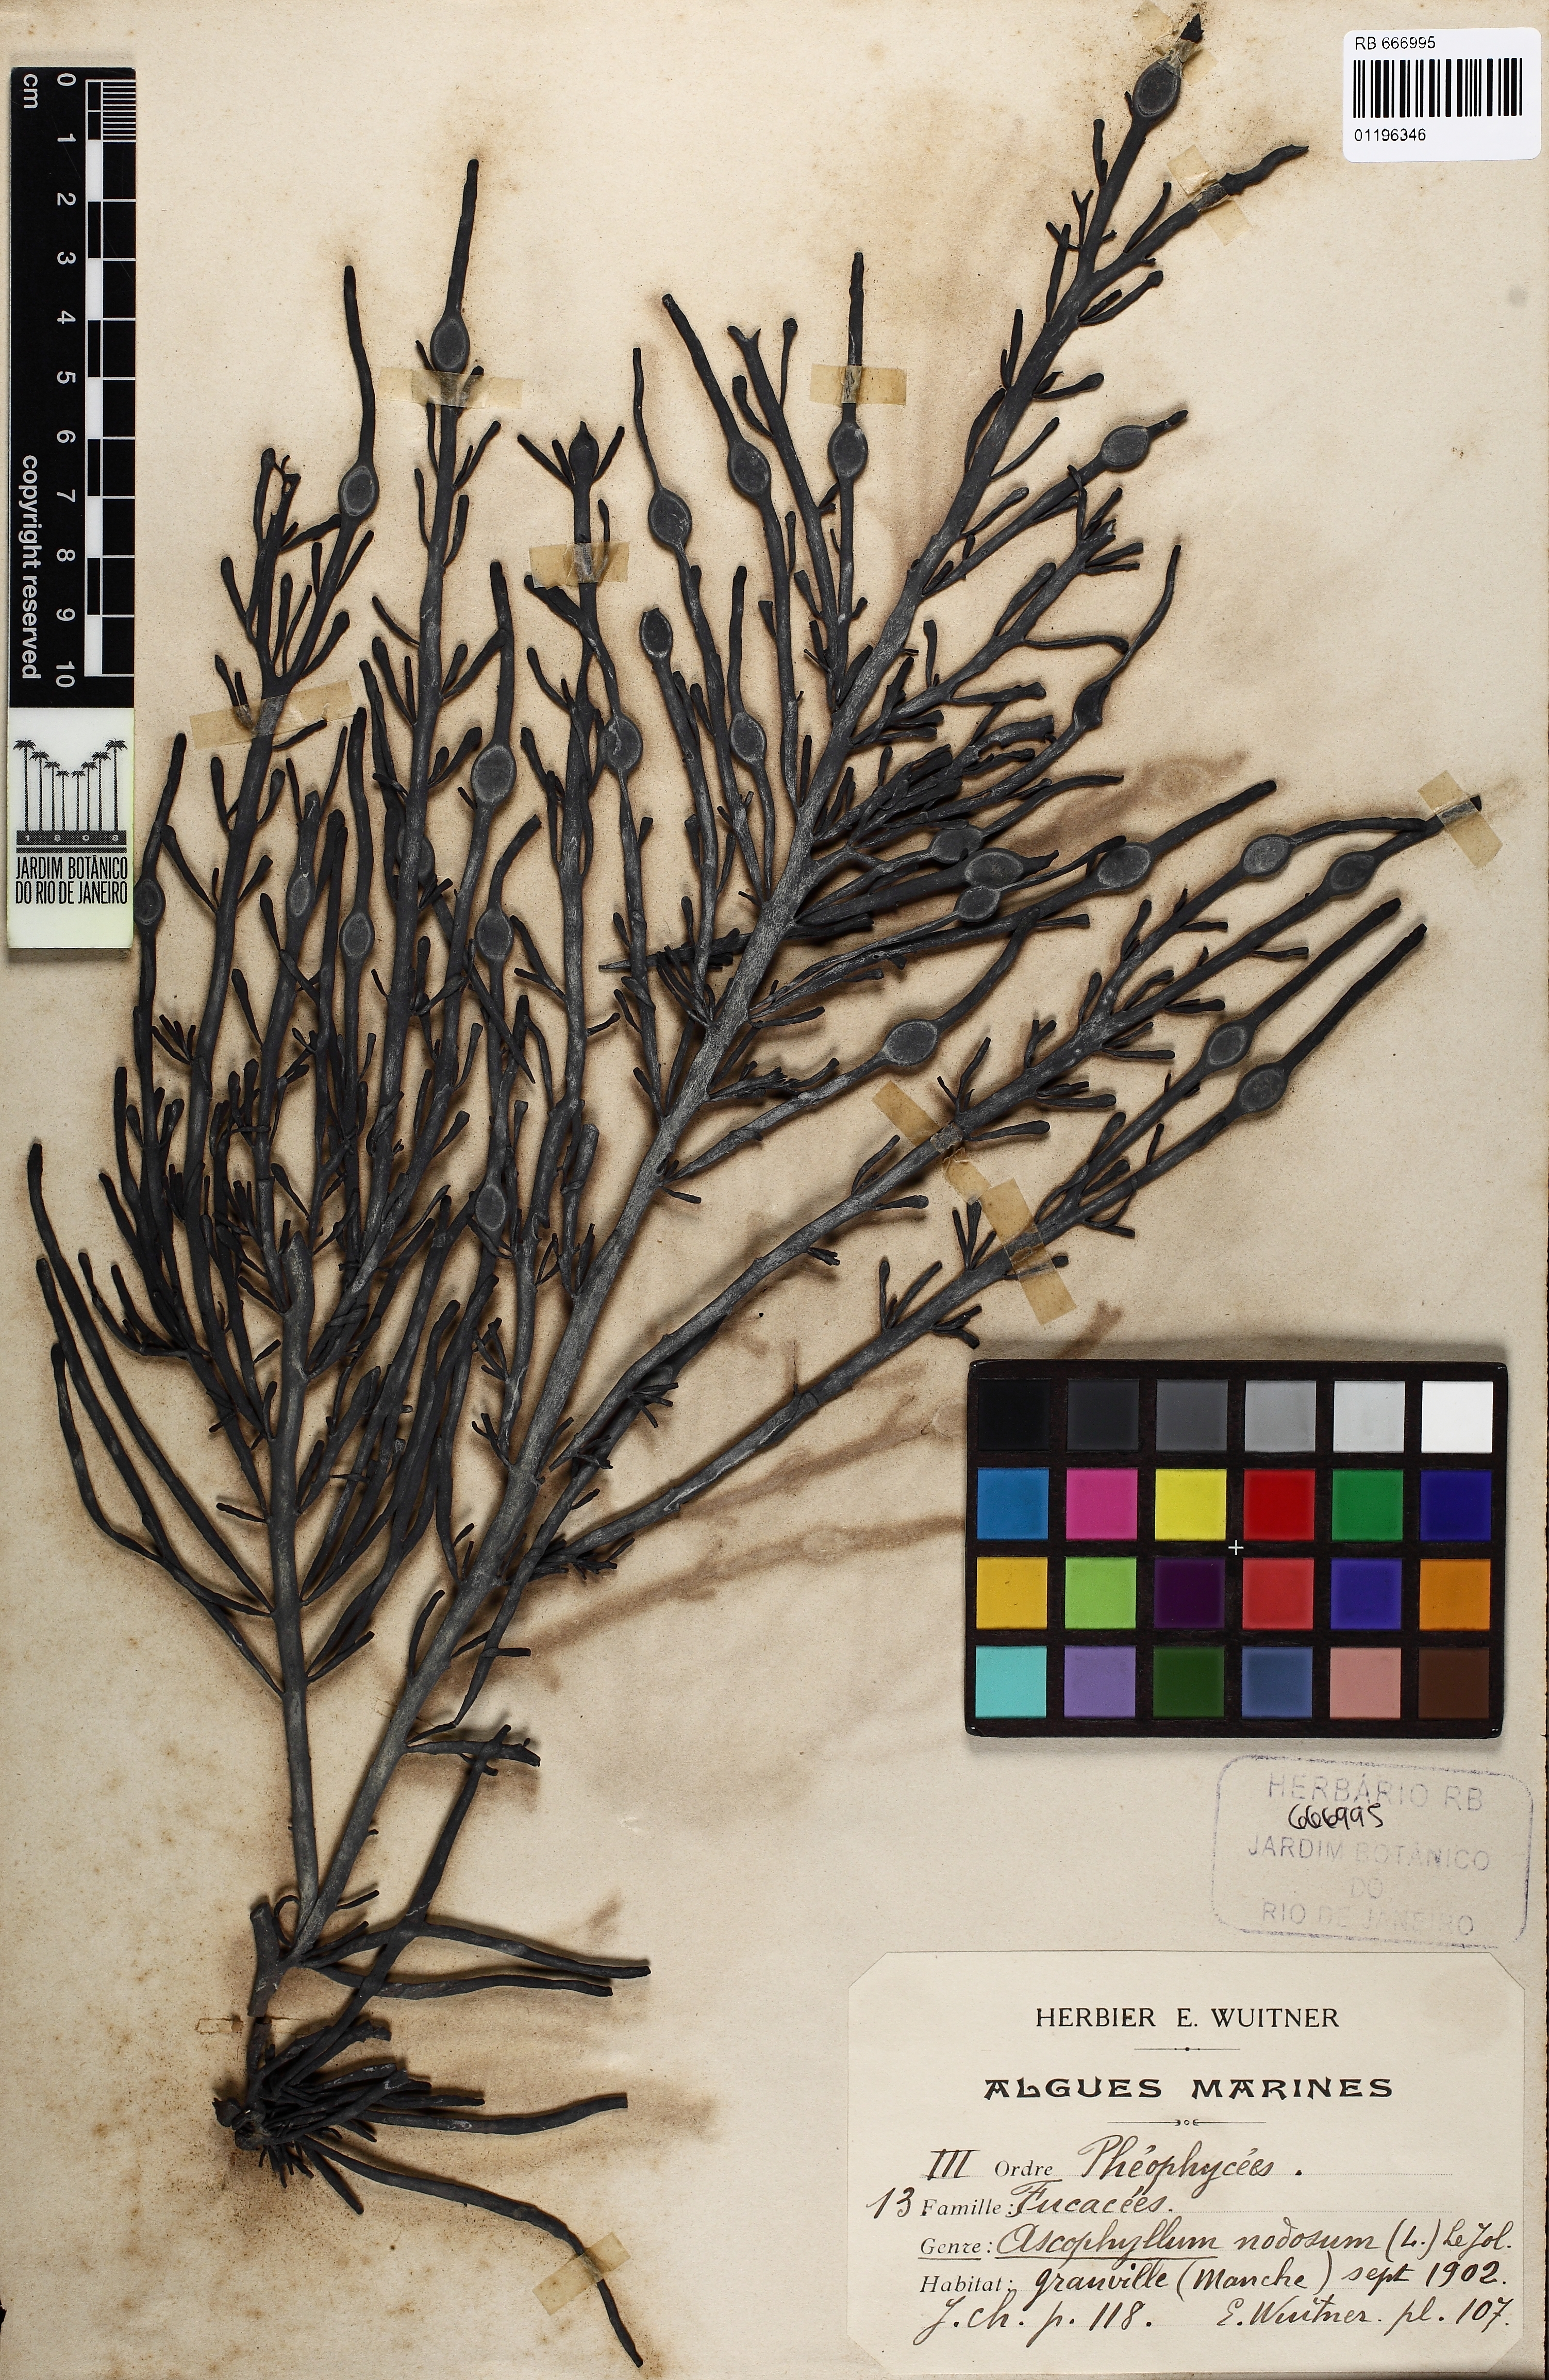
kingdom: Chromista
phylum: Ochrophyta
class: Phaeophyceae
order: Fucales
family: Fucaceae
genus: Ascophyllum
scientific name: Ascophyllum nodosum
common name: Knotted wrack
